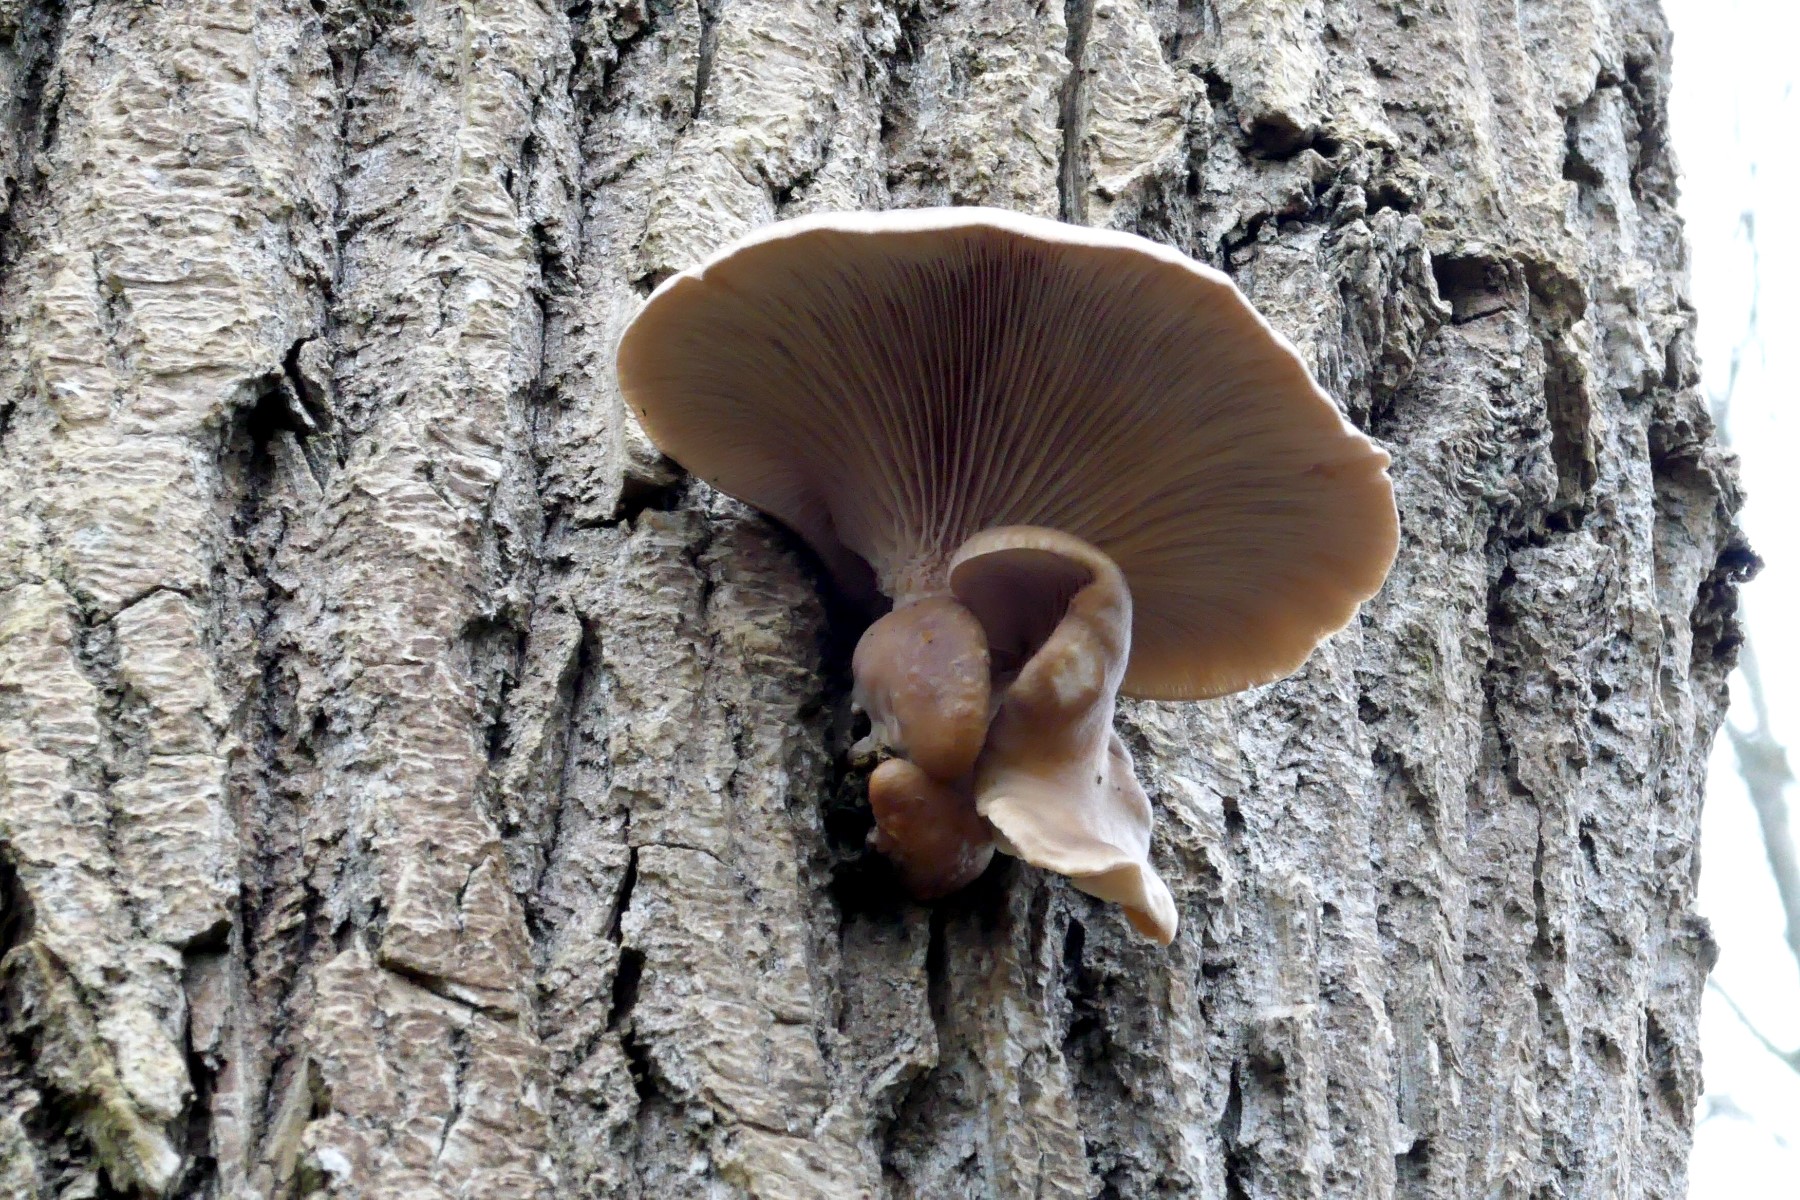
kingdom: Fungi
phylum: Basidiomycota
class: Agaricomycetes
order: Agaricales
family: Pleurotaceae
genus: Pleurotus
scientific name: Pleurotus ostreatus
